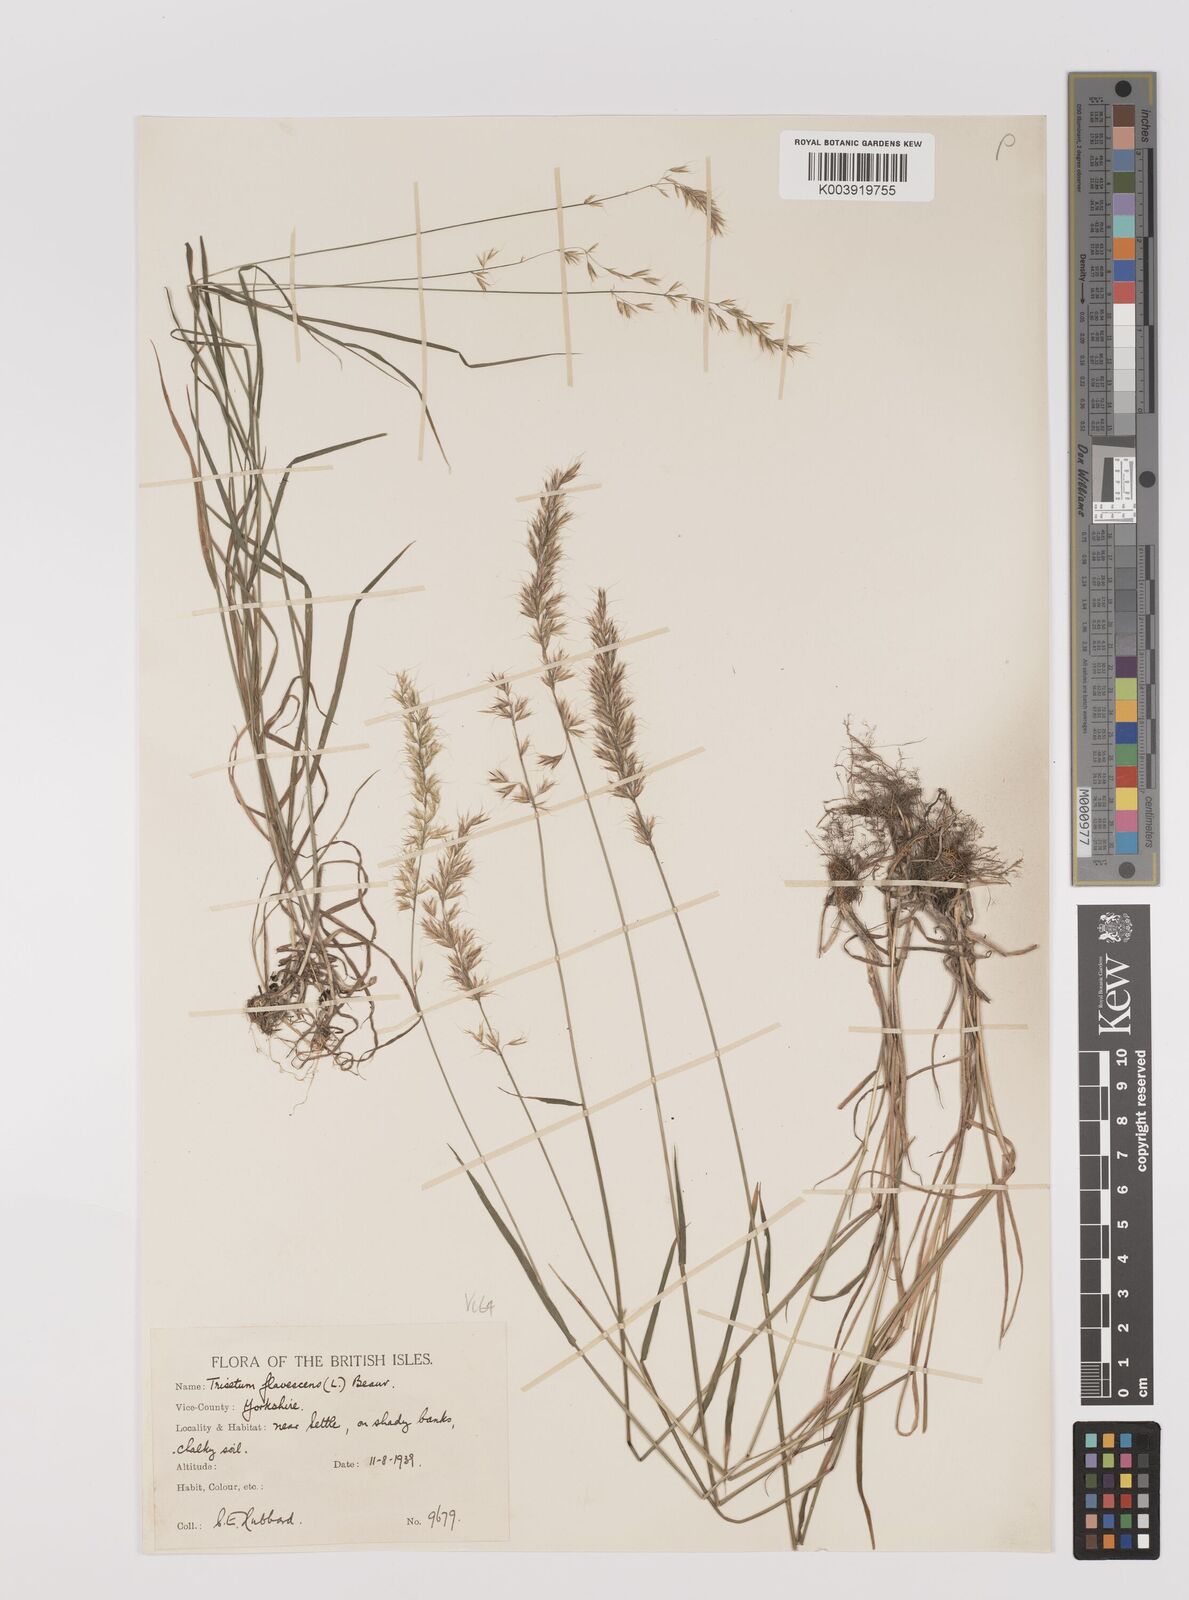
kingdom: Plantae
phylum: Tracheophyta
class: Liliopsida
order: Poales
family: Poaceae
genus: Trisetum
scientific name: Trisetum flavescens
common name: Yellow oat-grass
